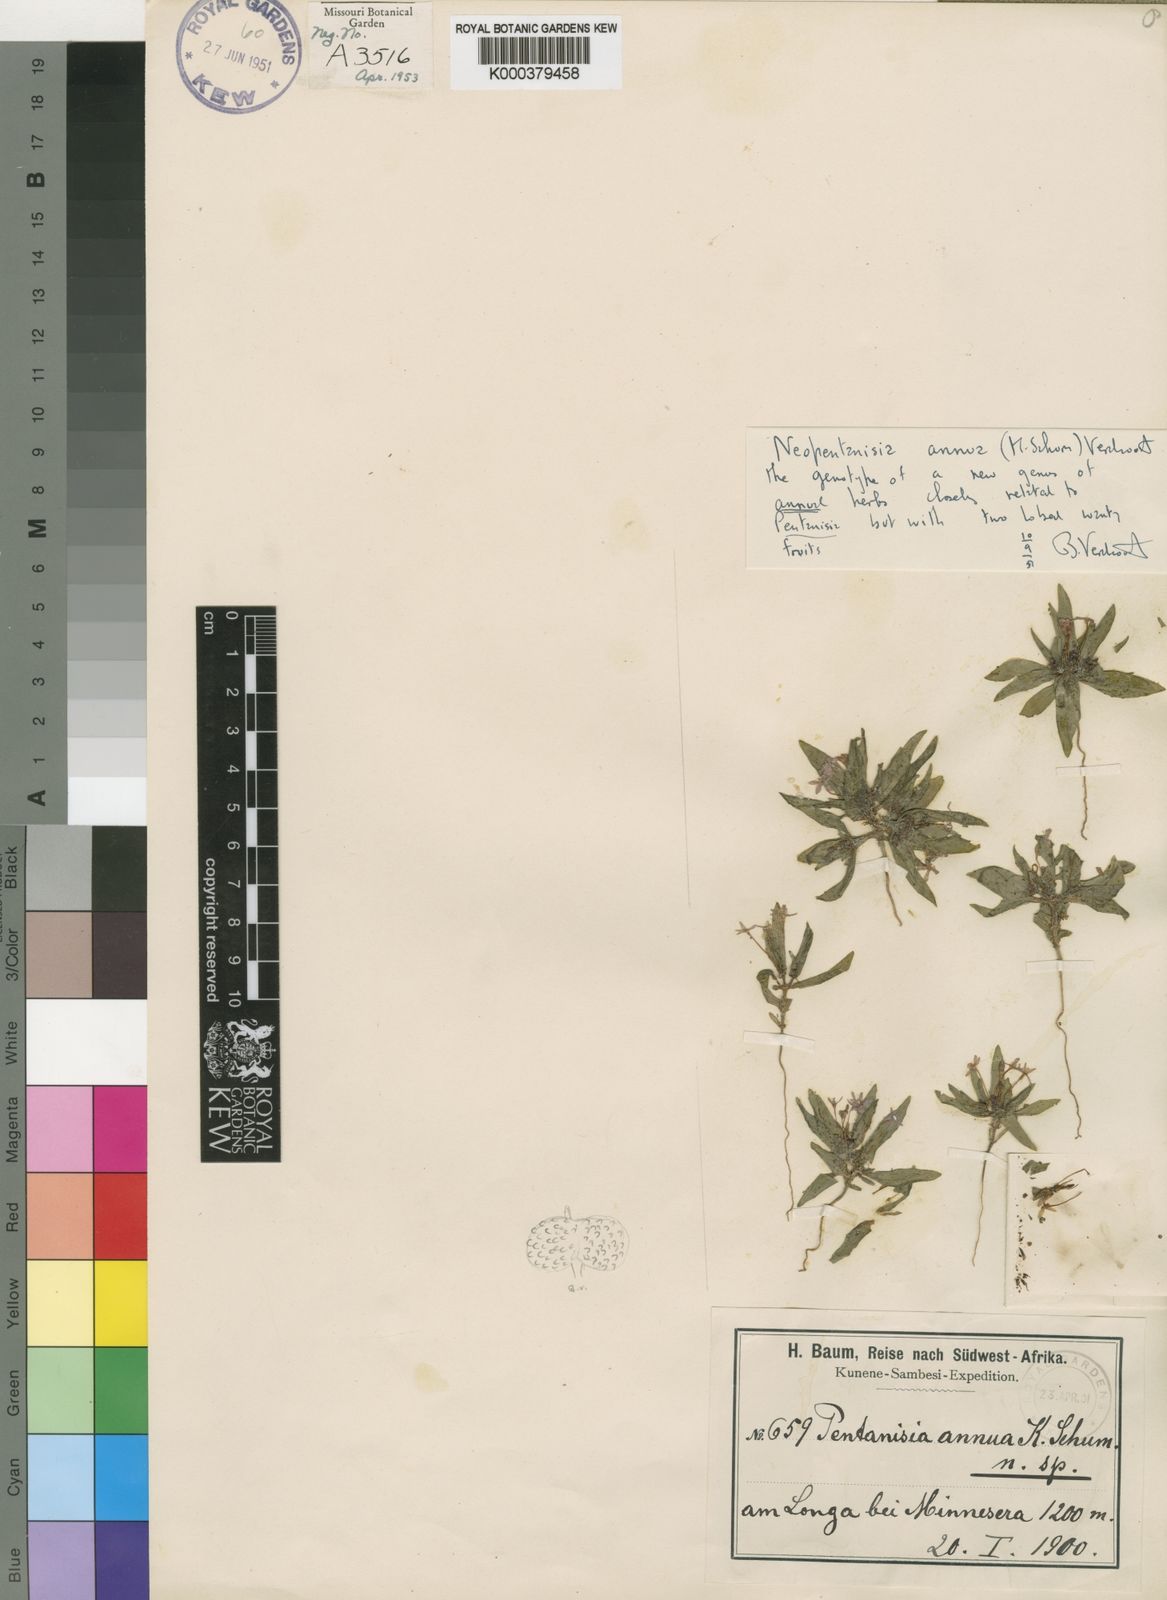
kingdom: Plantae
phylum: Tracheophyta
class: Magnoliopsida
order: Gentianales
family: Rubiaceae
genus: Pentanisia
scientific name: Pentanisia annua
